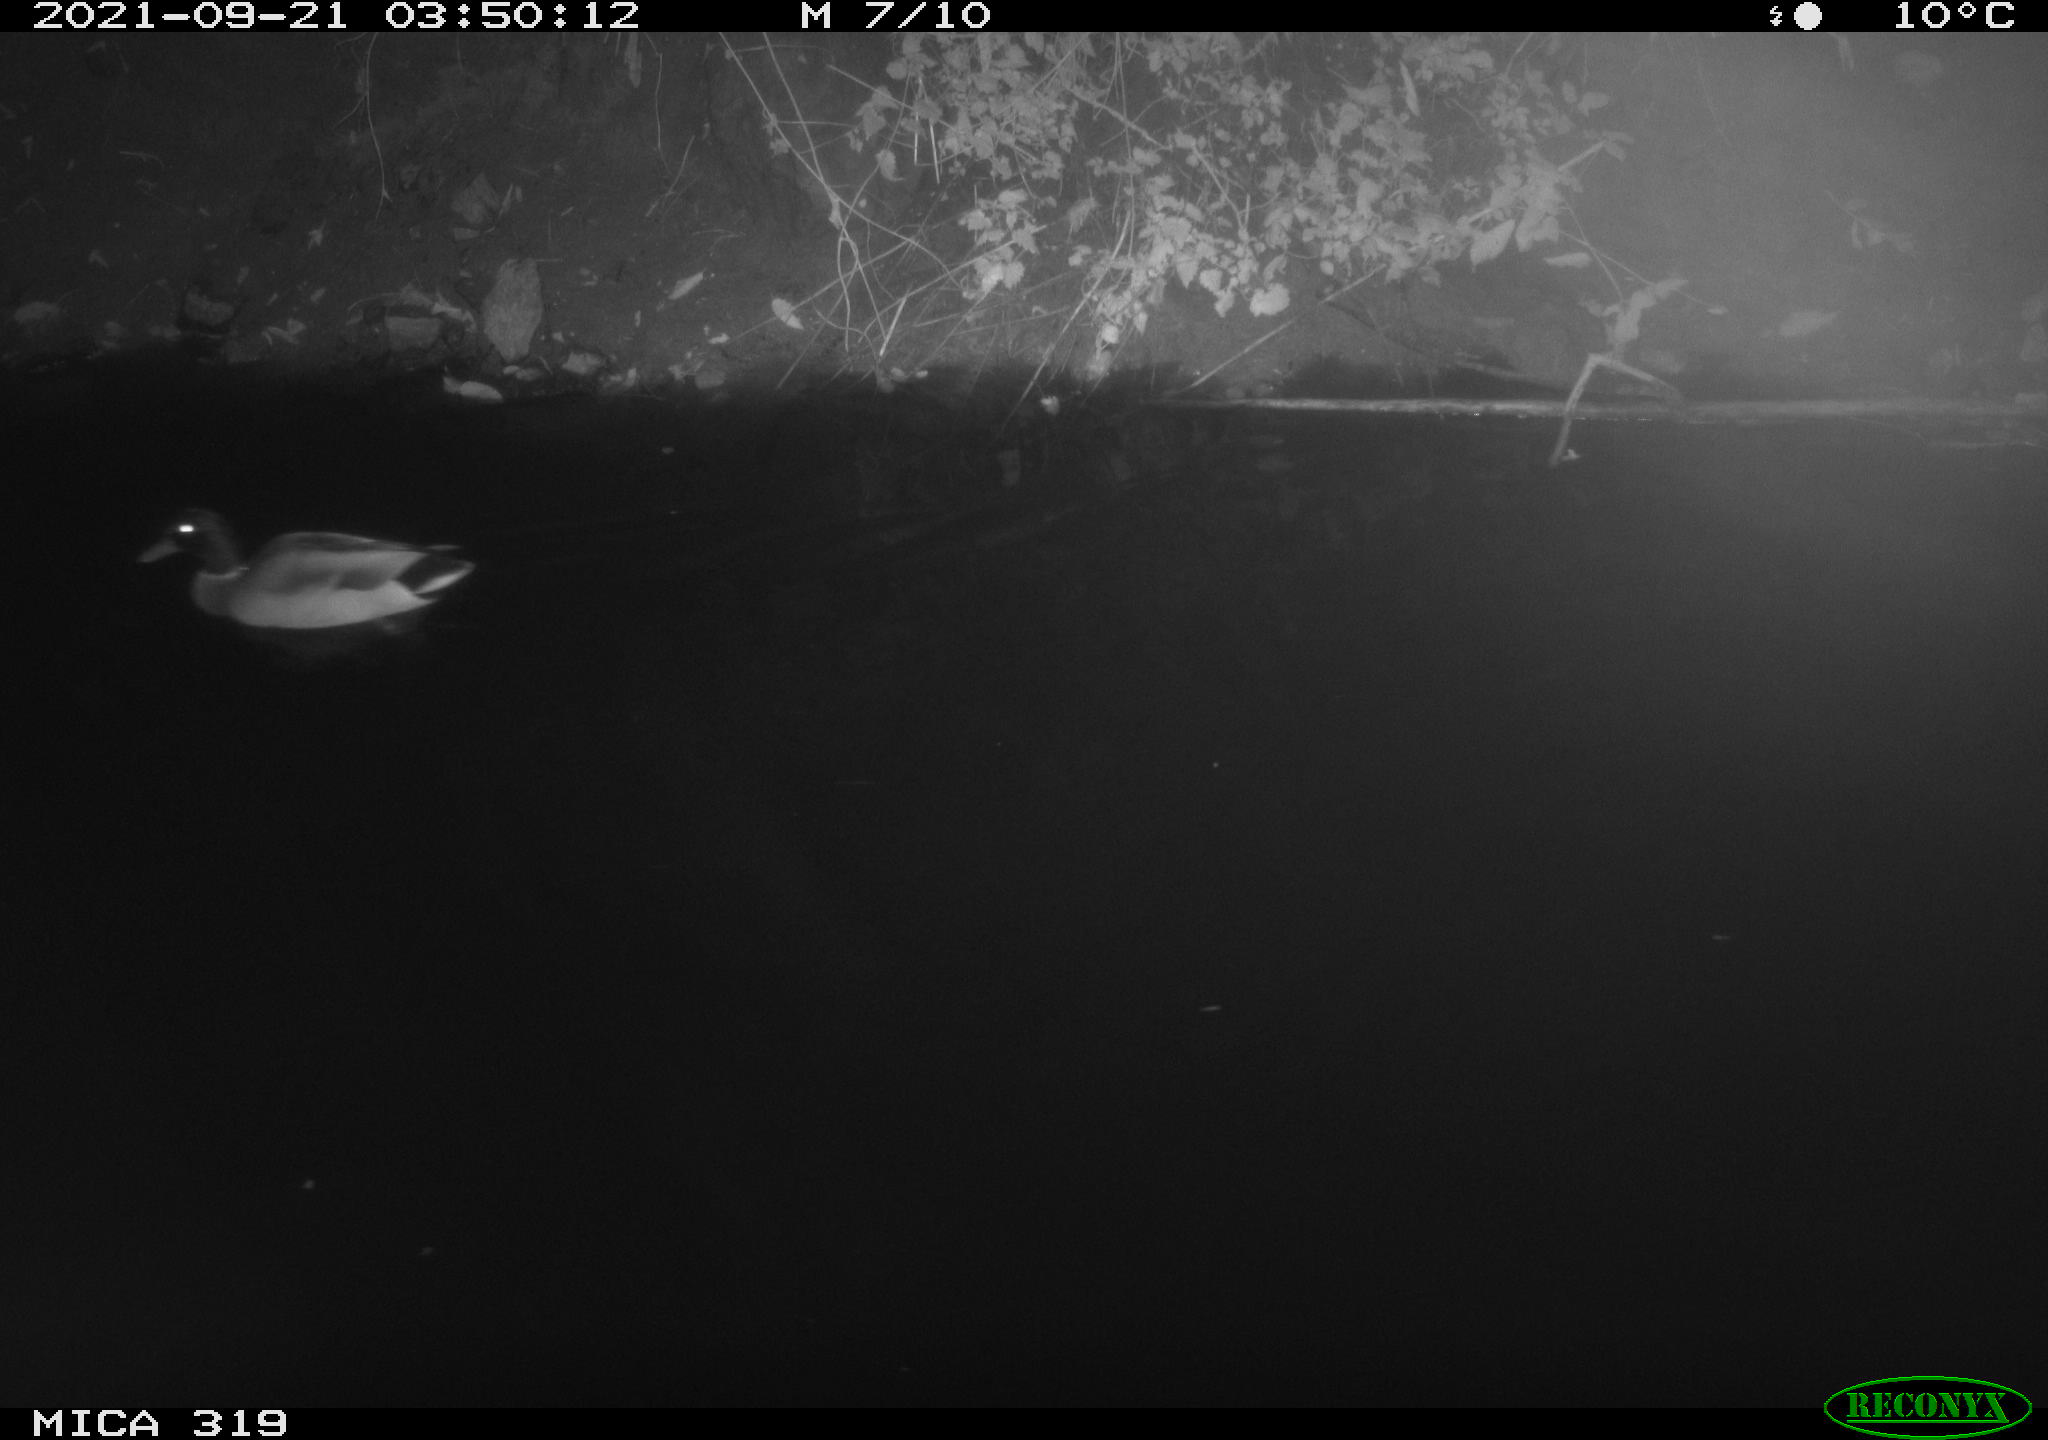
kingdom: Animalia
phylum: Chordata
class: Aves
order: Anseriformes
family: Anatidae
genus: Anas
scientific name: Anas platyrhynchos
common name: Mallard
